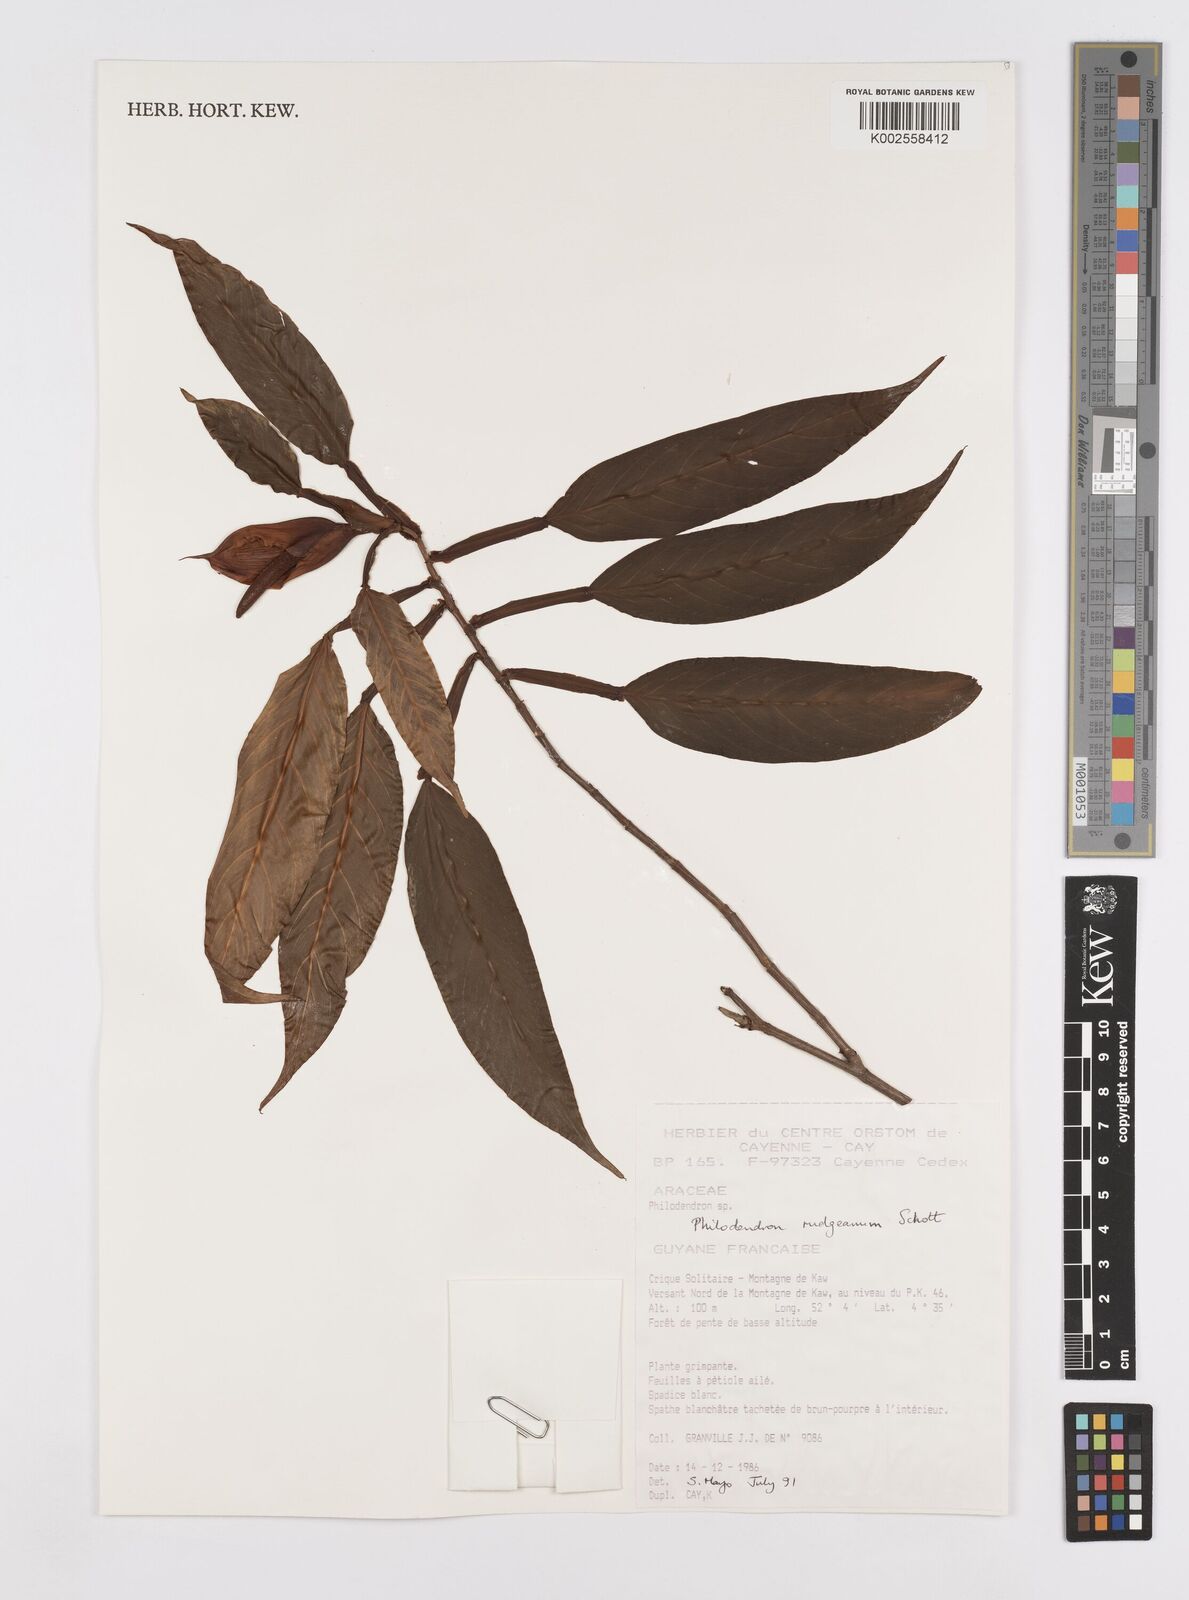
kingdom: Plantae
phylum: Tracheophyta
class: Liliopsida
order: Alismatales
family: Araceae
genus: Philodendron
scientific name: Philodendron rudgeanum
